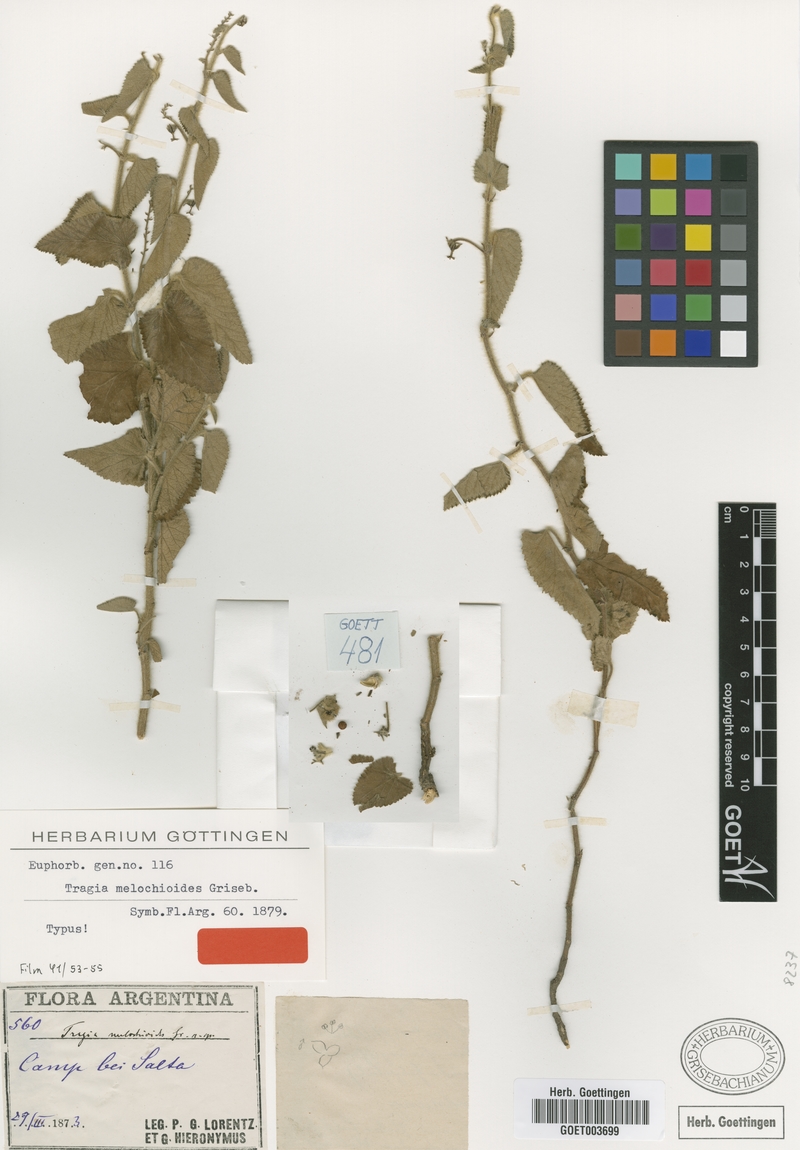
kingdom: Plantae
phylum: Tracheophyta
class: Magnoliopsida
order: Malpighiales
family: Euphorbiaceae
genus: Tragia
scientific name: Tragia melochioides
